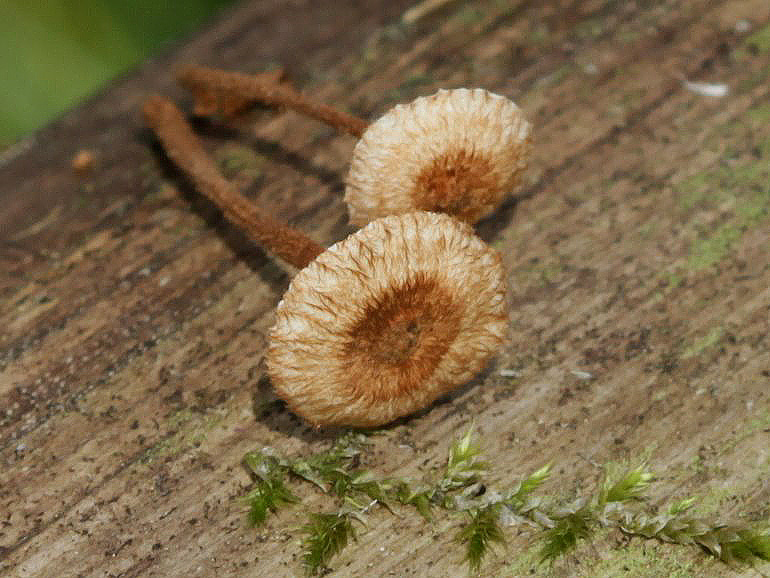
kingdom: Fungi
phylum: Basidiomycota
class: Agaricomycetes
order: Agaricales
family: Marasmiaceae
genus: Crinipellis
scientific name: Crinipellis scabella
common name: børstefod
